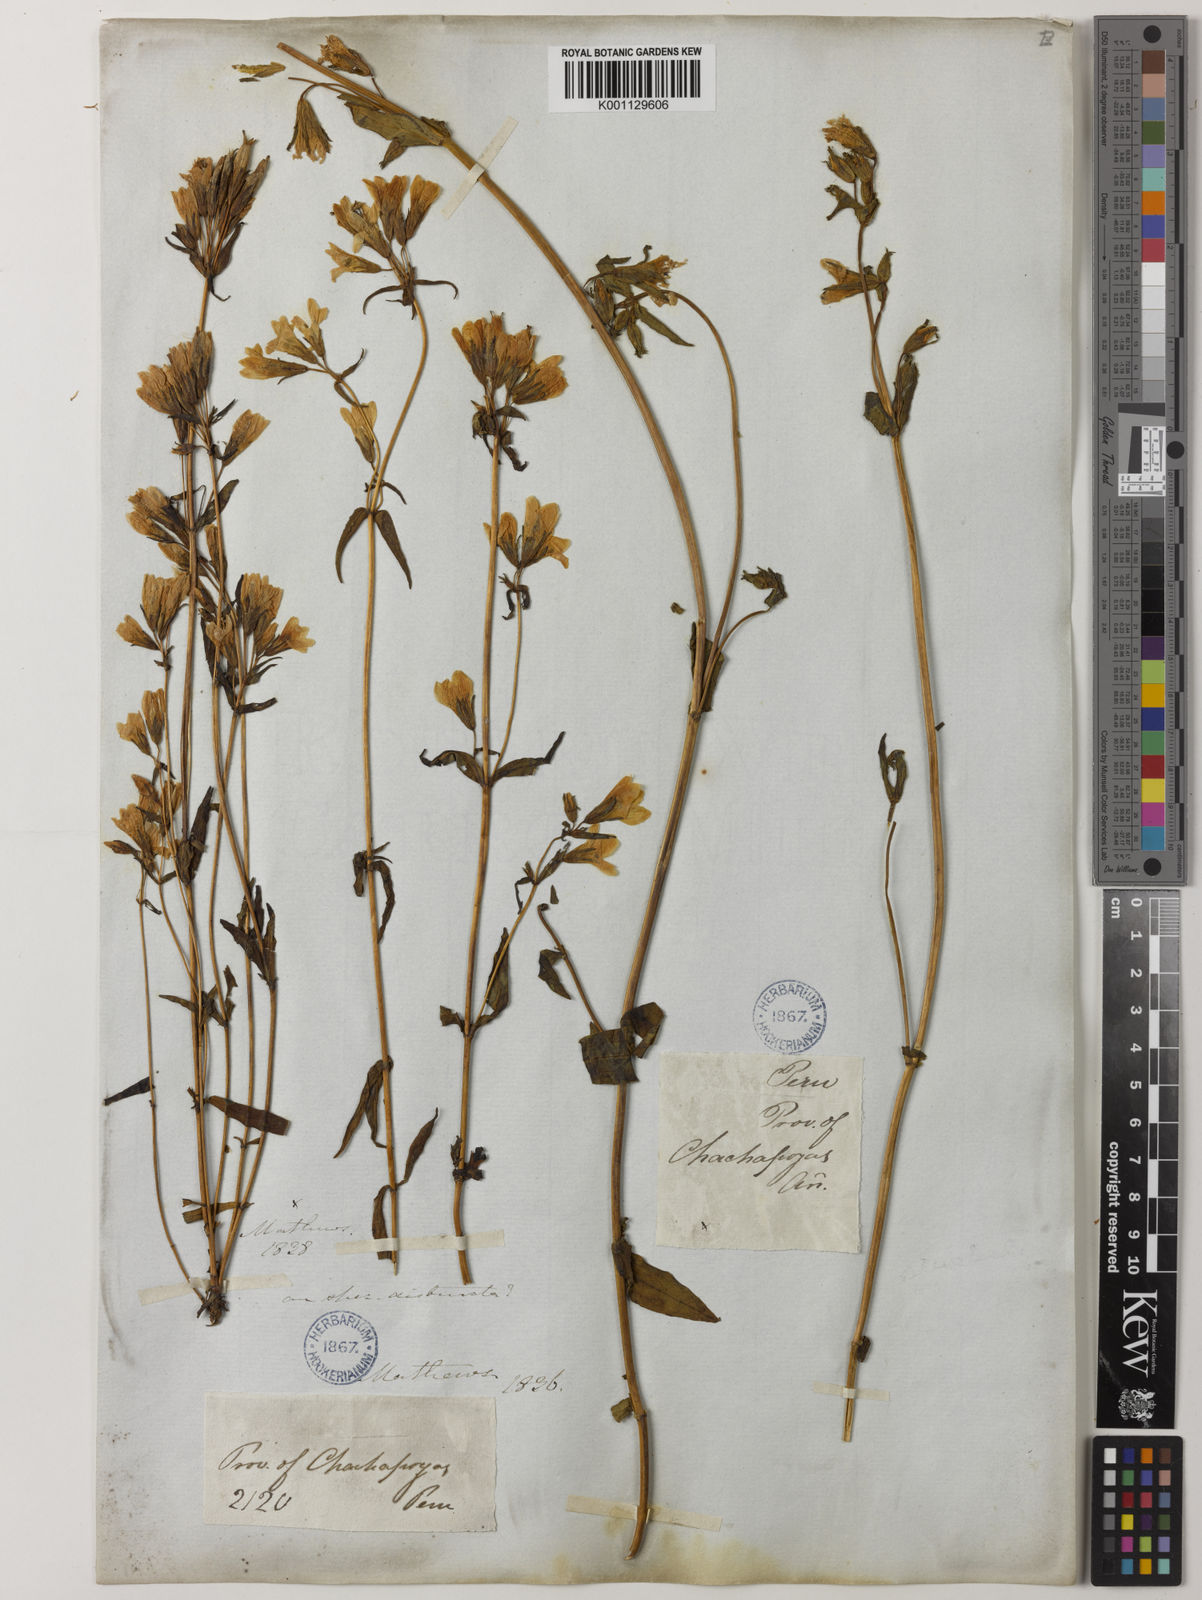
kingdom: Plantae
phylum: Tracheophyta
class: Magnoliopsida
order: Gentianales
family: Gentianaceae
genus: Gentianella
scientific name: Gentianella liniflora
